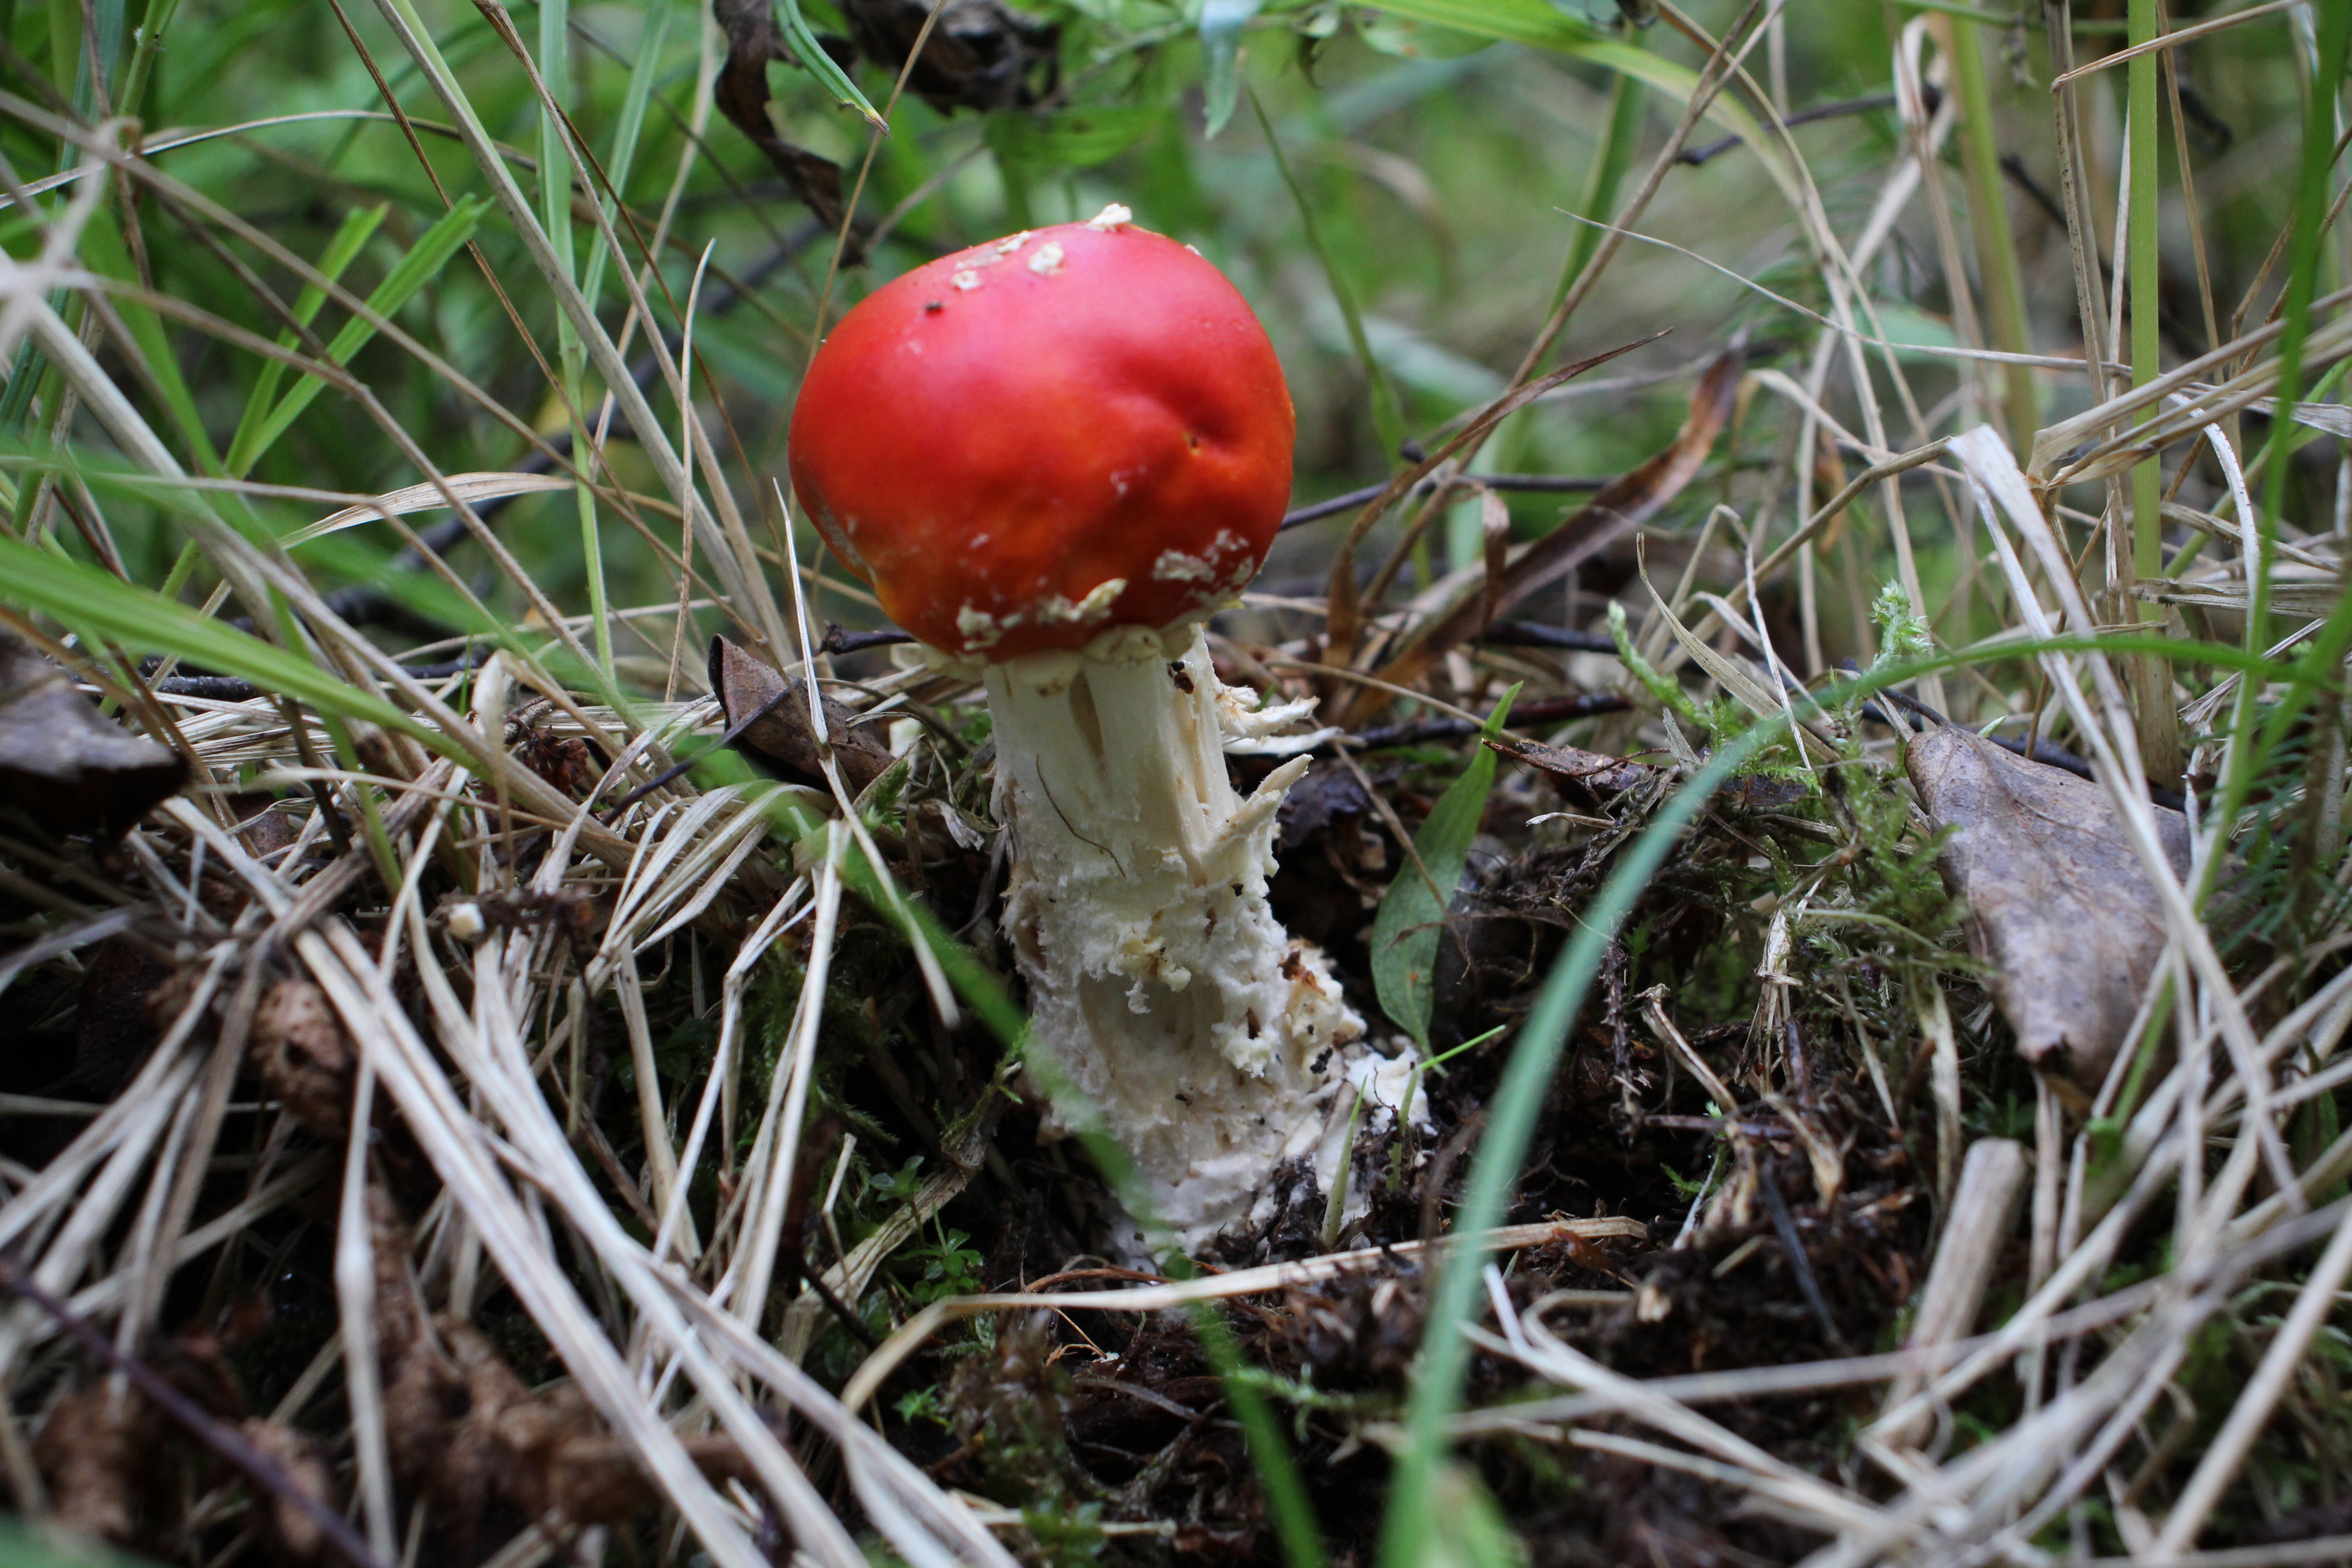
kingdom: Fungi
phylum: Basidiomycota
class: Agaricomycetes
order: Agaricales
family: Amanitaceae
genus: Amanita
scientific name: Amanita muscaria
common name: Fly agaric
